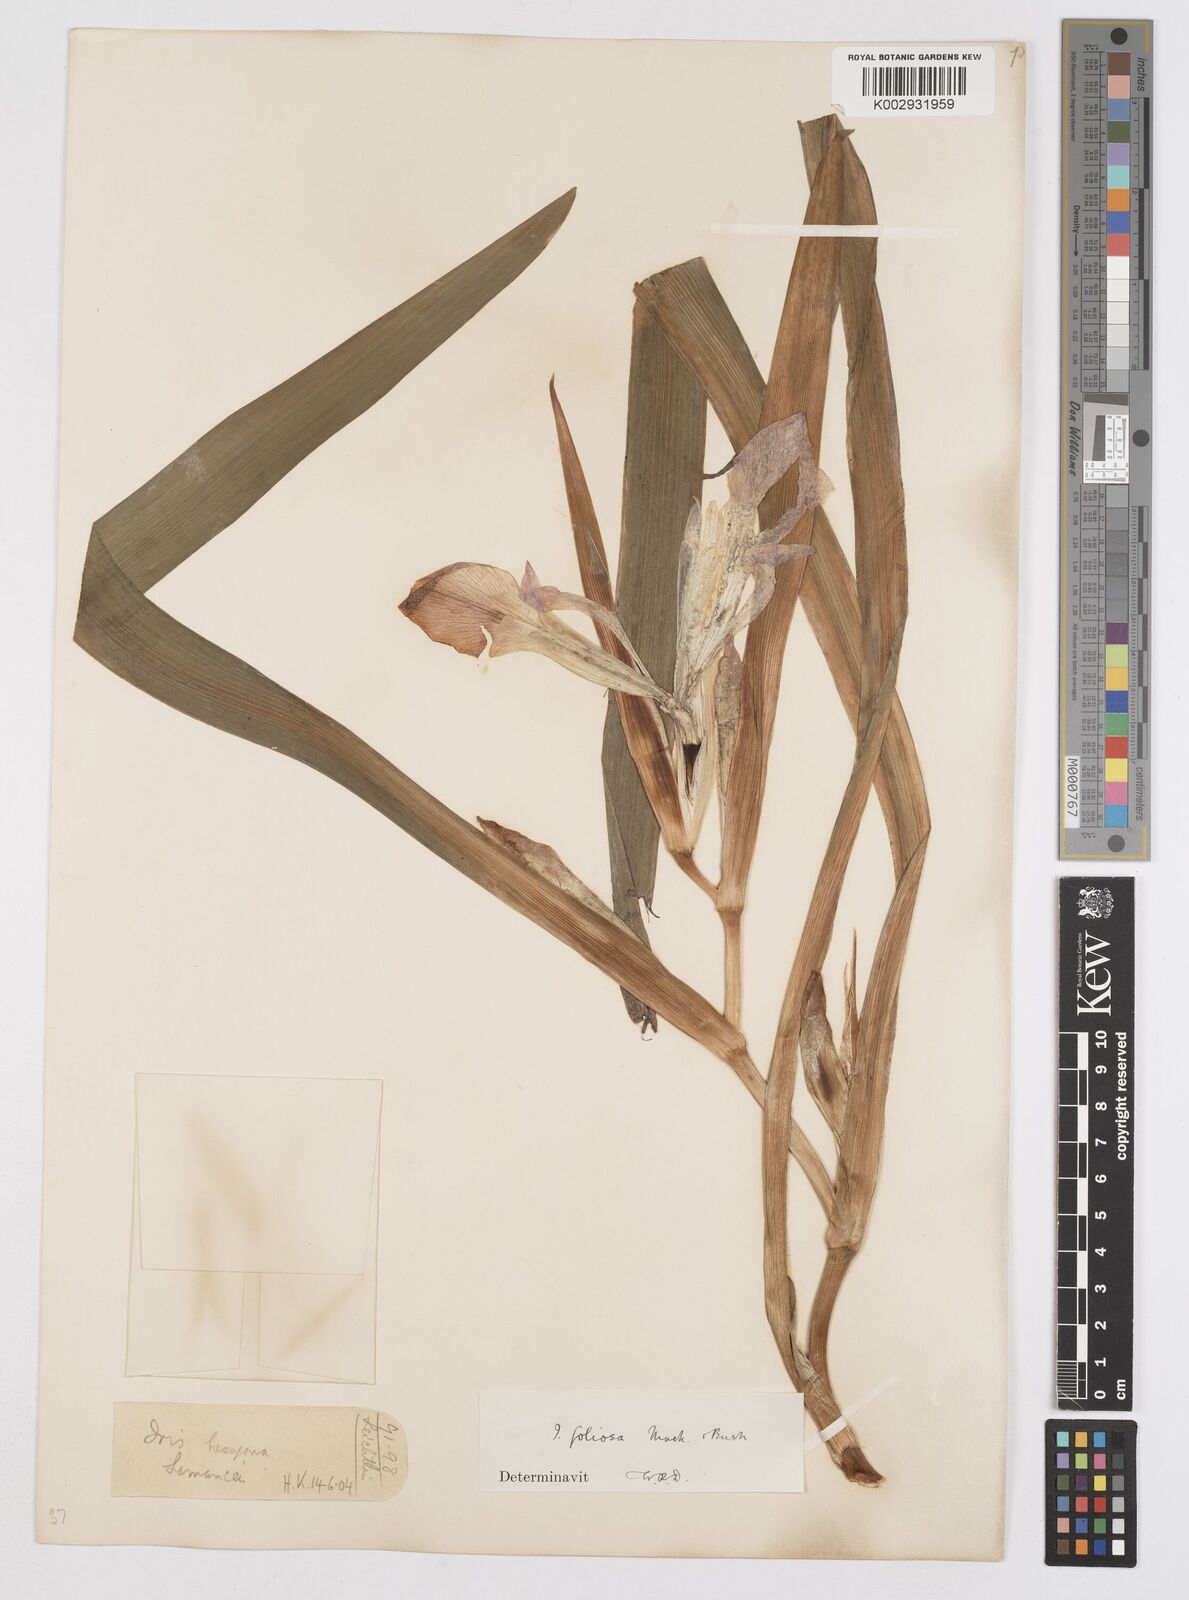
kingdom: Plantae
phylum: Tracheophyta
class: Liliopsida
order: Asparagales
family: Iridaceae
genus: Iris
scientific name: Iris brevicaulis
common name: Zigzag iris
